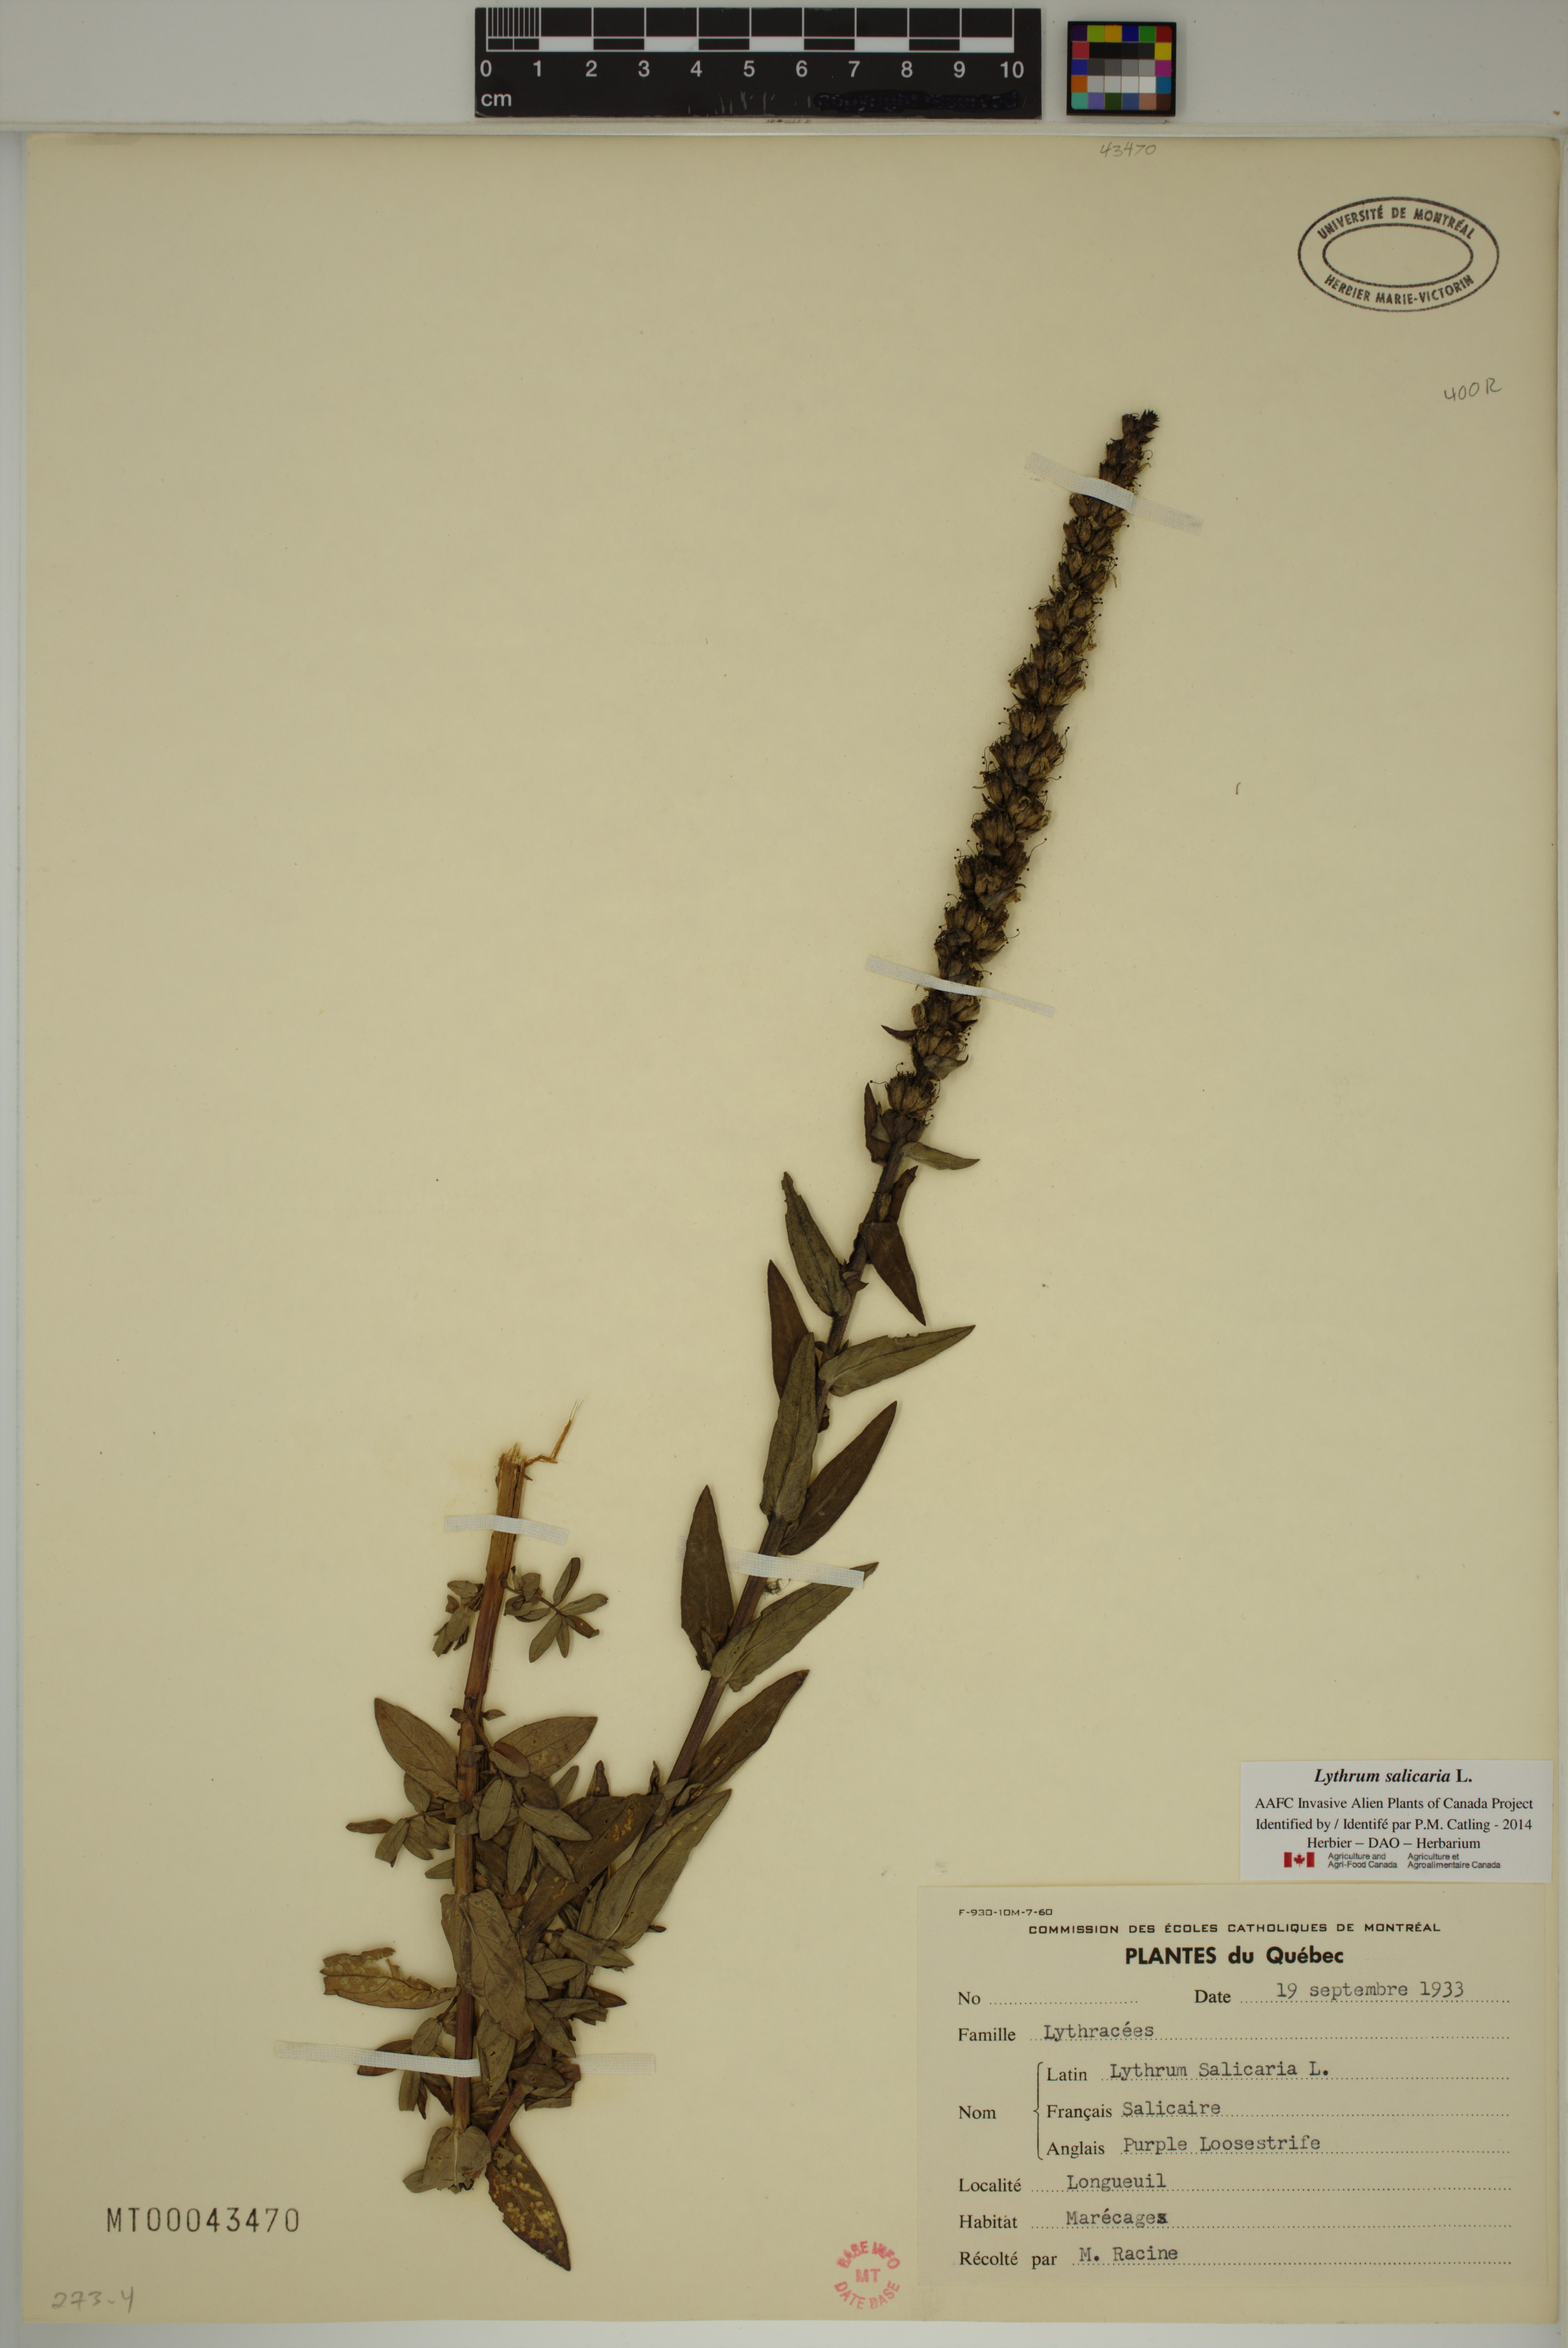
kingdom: Plantae
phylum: Tracheophyta
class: Magnoliopsida
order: Myrtales
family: Lythraceae
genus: Lythrum
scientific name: Lythrum salicaria
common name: Purple loosestrife
